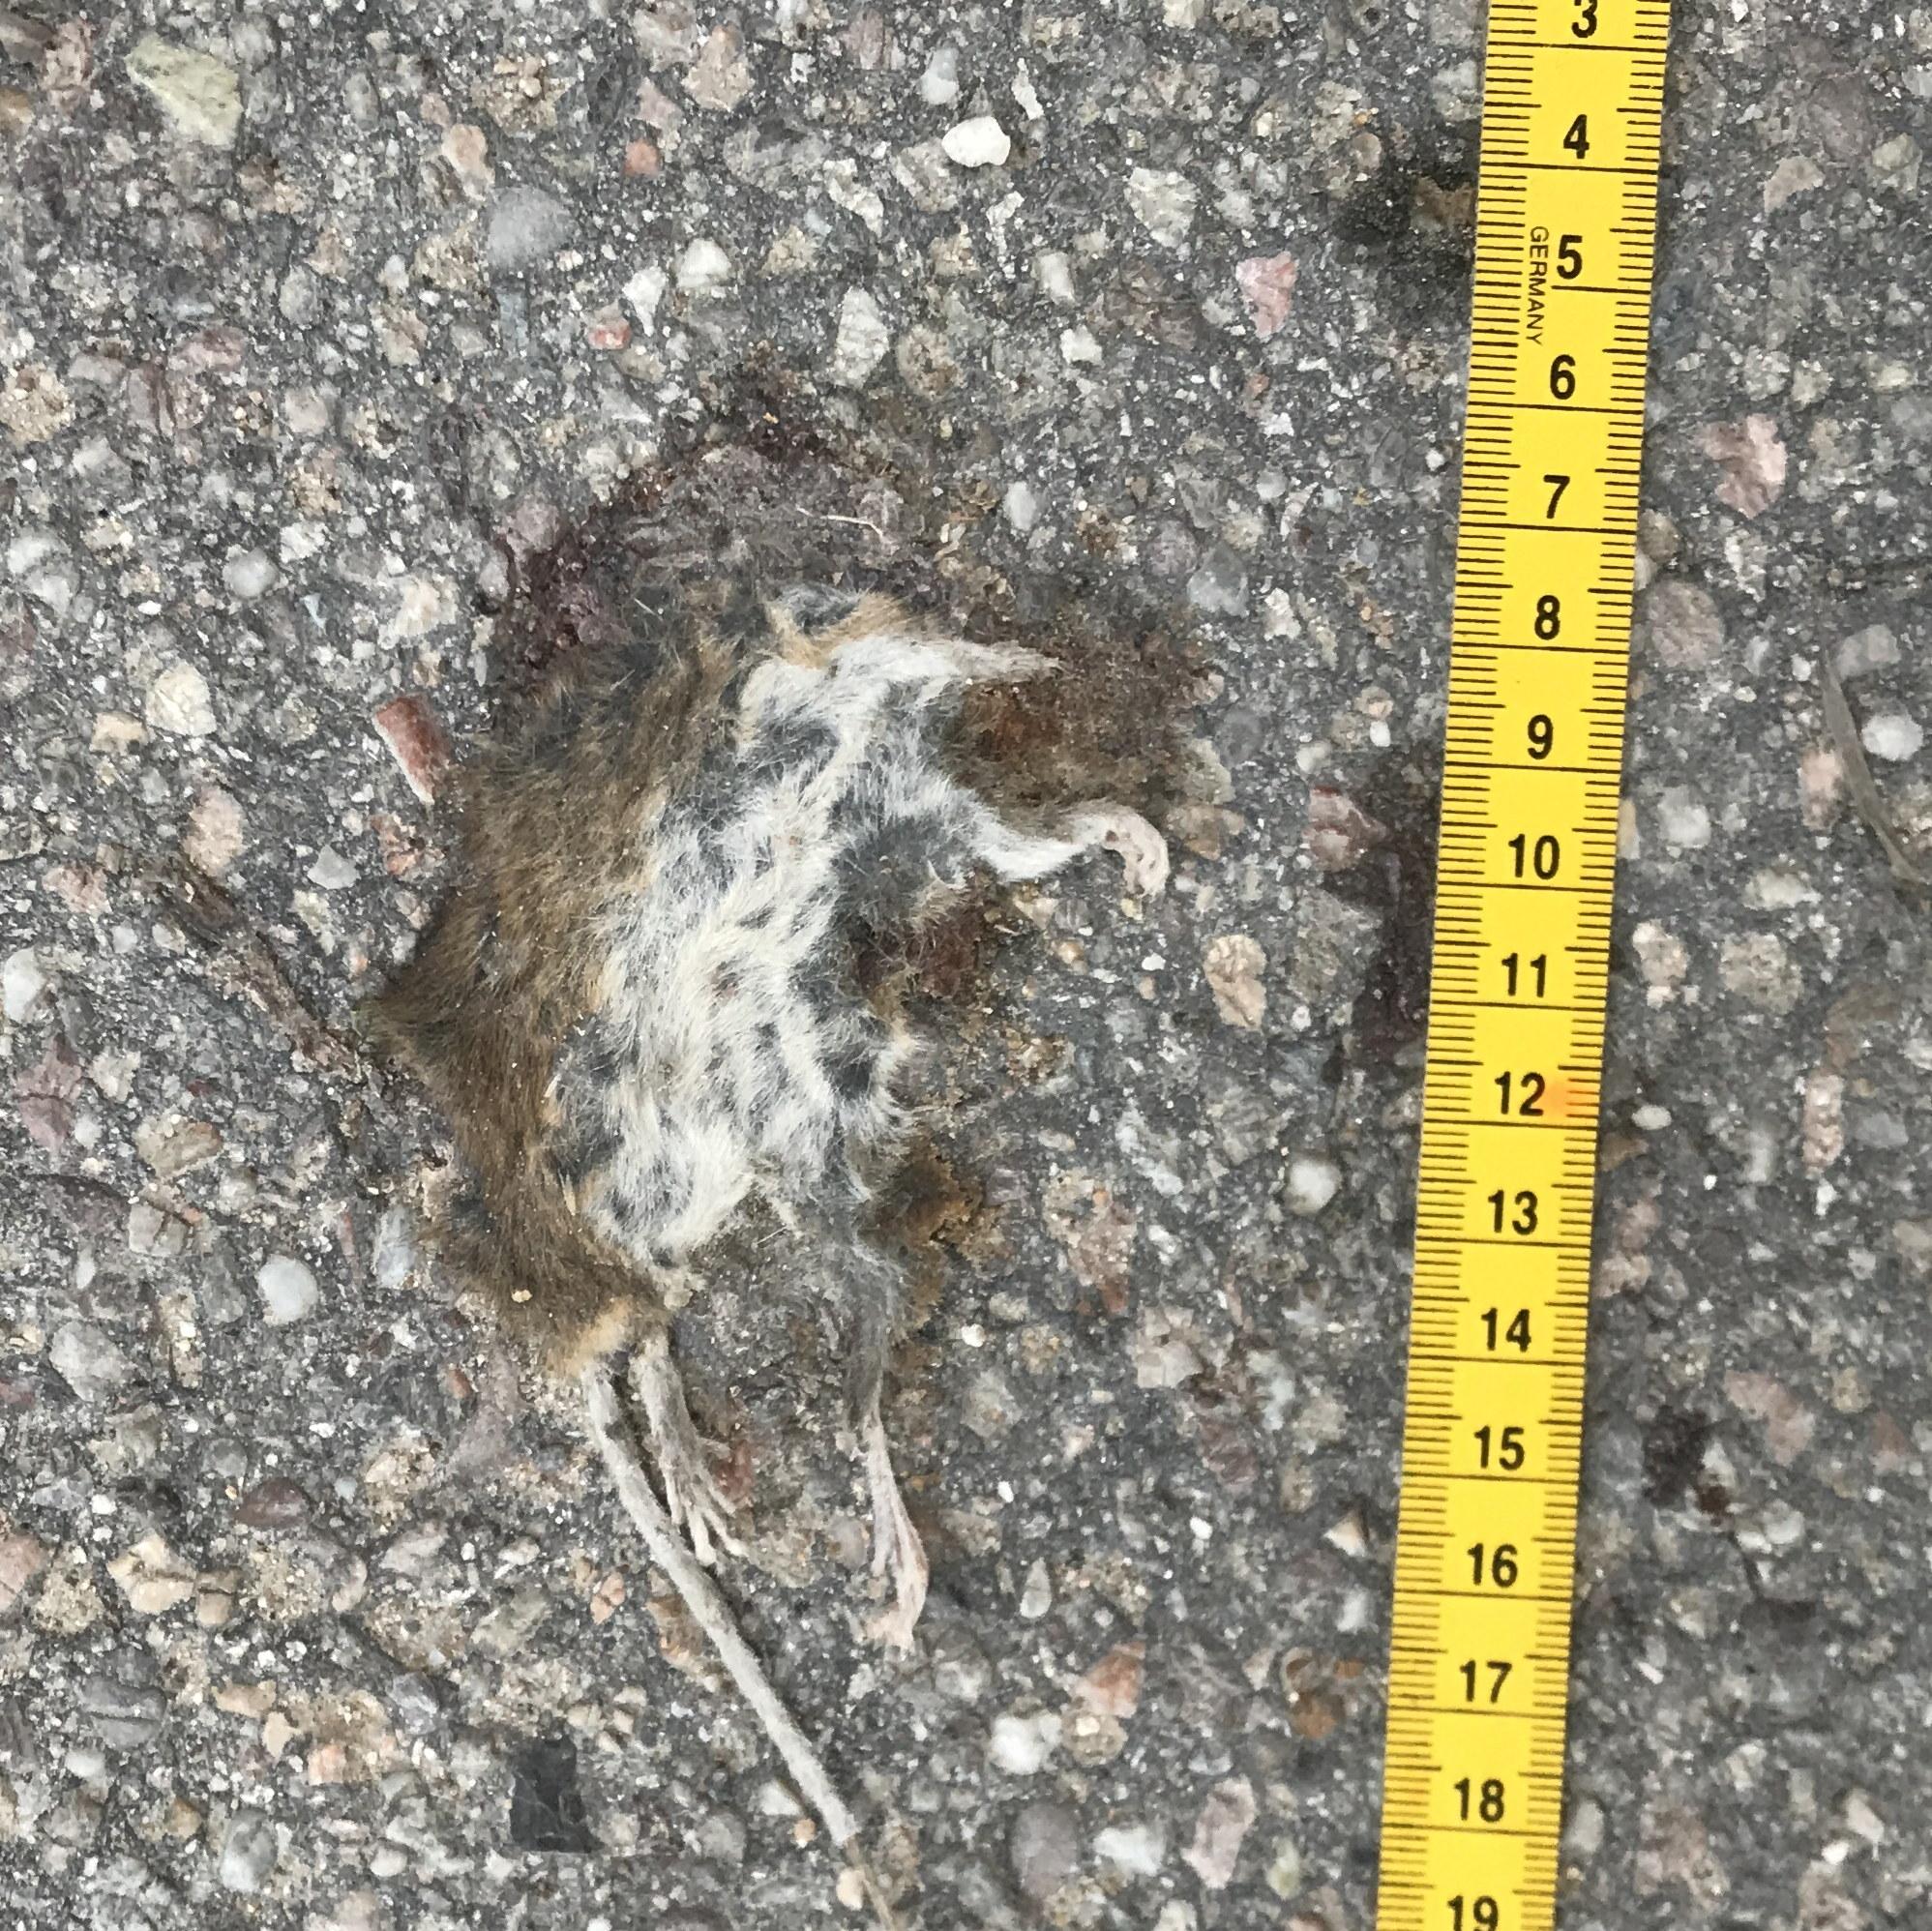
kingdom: Animalia
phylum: Chordata
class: Mammalia
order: Rodentia
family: Muridae
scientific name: Muridae
